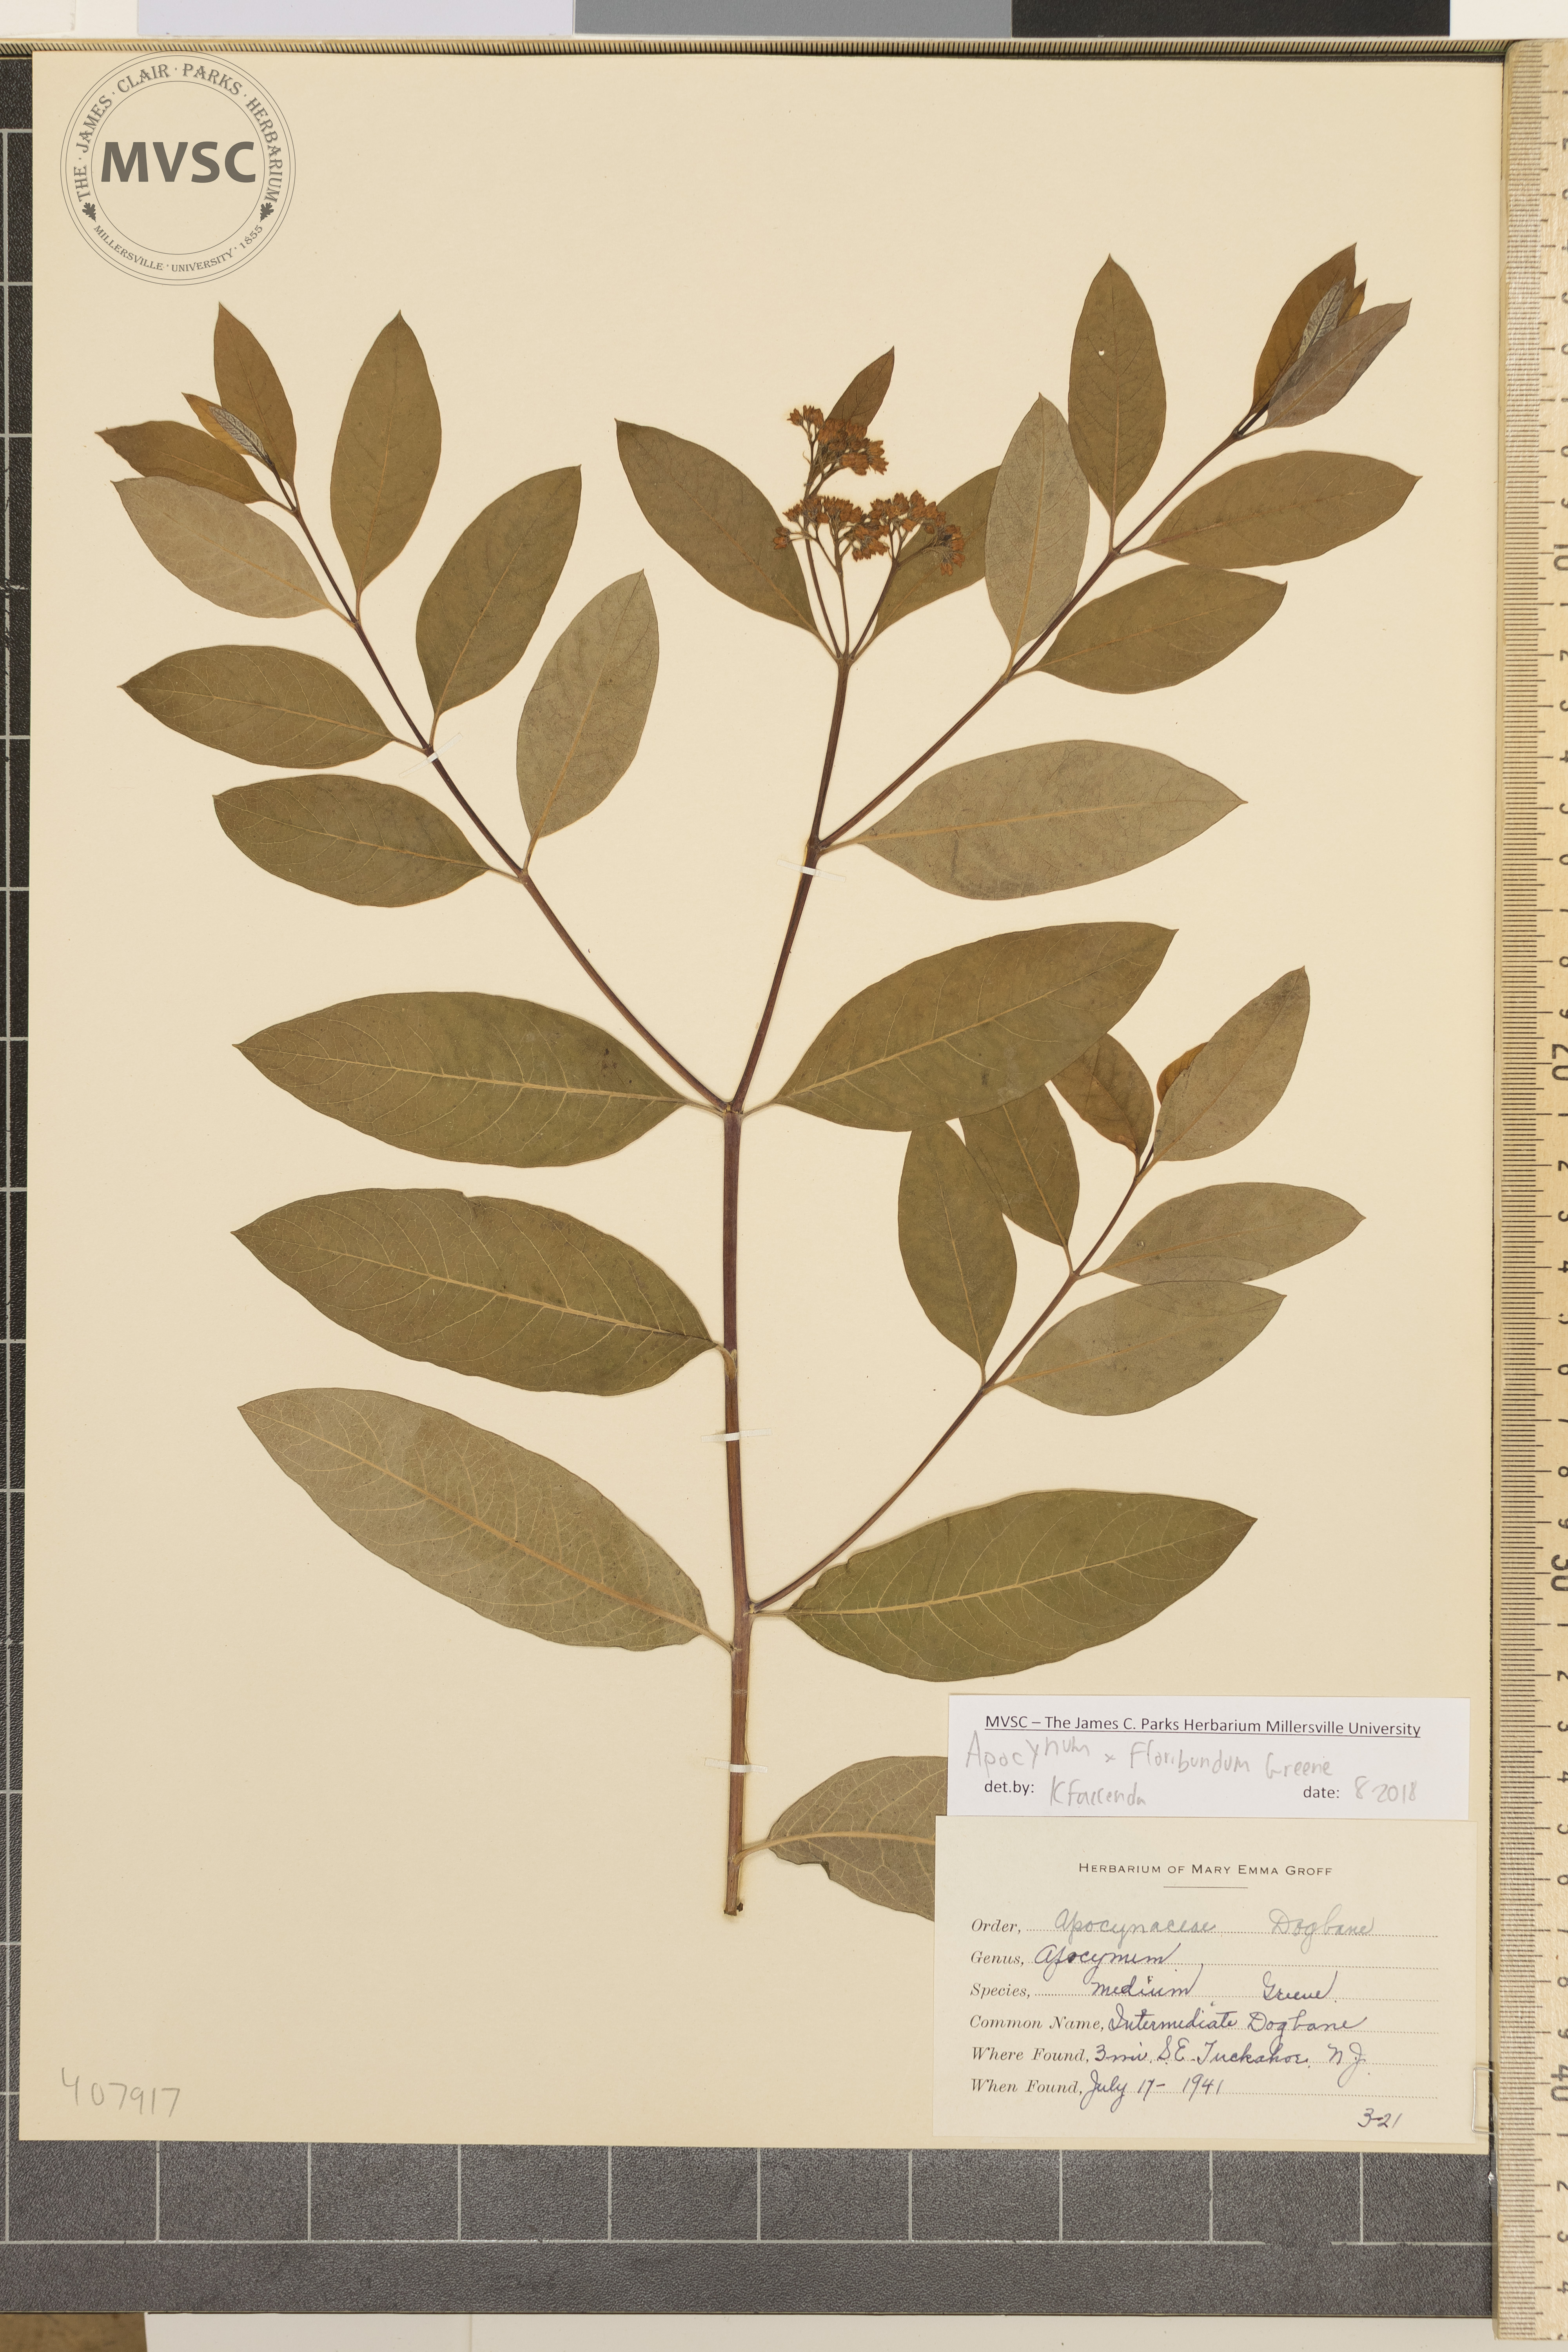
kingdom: Plantae
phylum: Tracheophyta
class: Magnoliopsida
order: Gentianales
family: Apocynaceae
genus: Apocynum
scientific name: Apocynum floribundum
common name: Intermediate Dogbane
